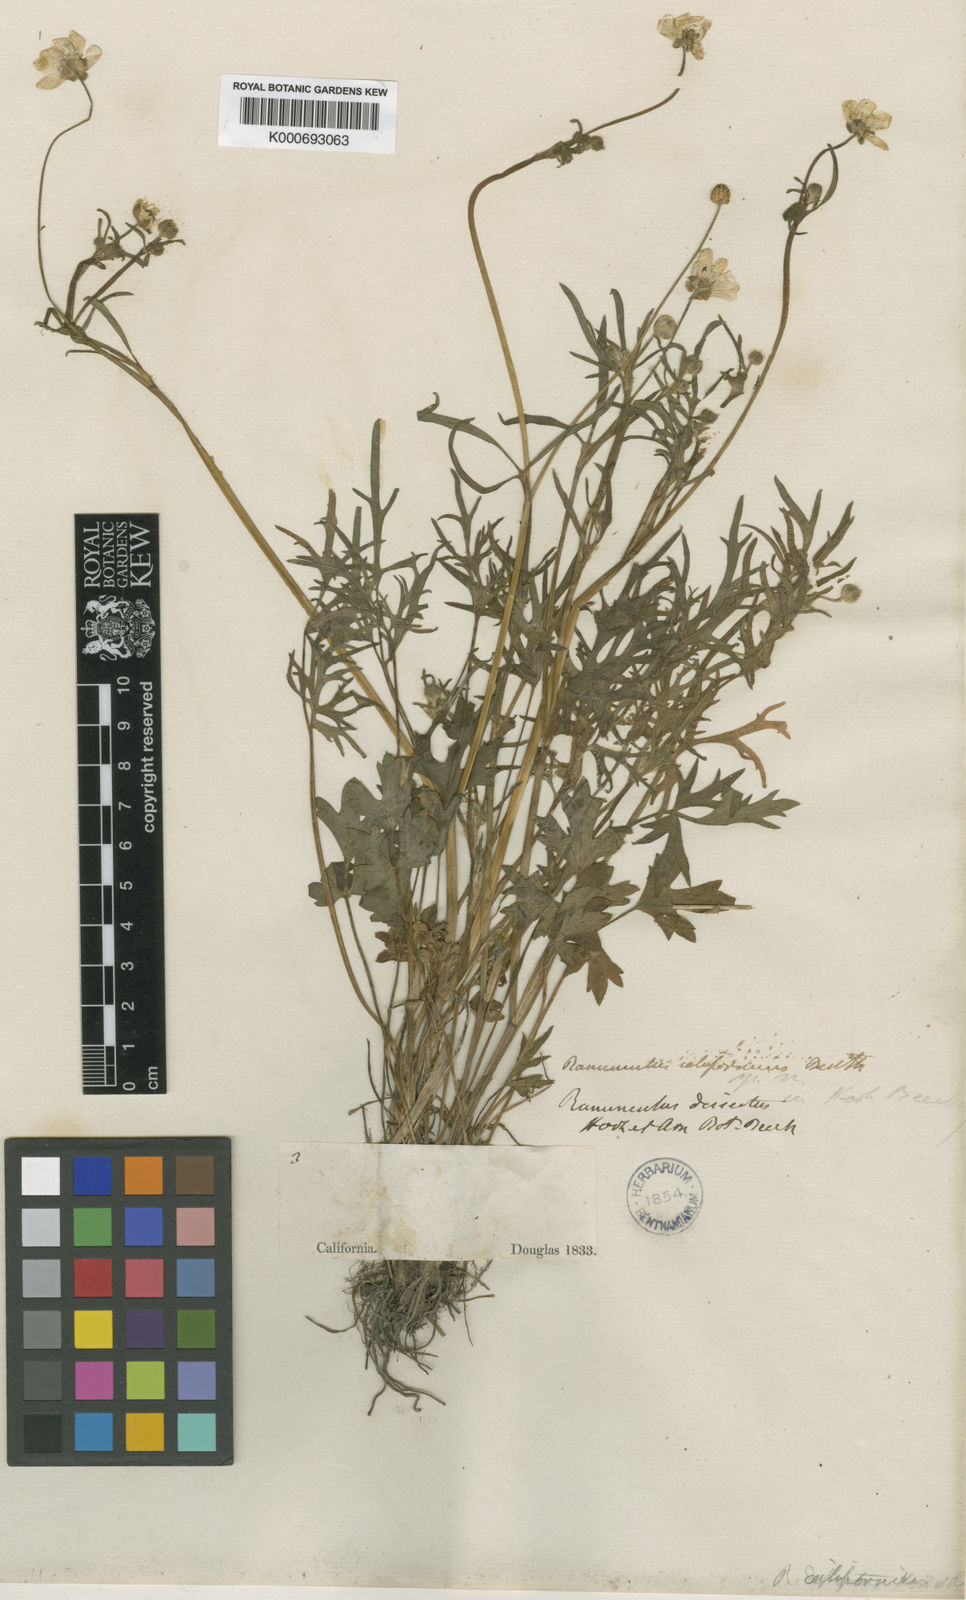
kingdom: Plantae
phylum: Tracheophyta
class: Magnoliopsida
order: Ranunculales
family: Ranunculaceae
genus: Ranunculus
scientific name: Ranunculus californicus
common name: California buttercup
